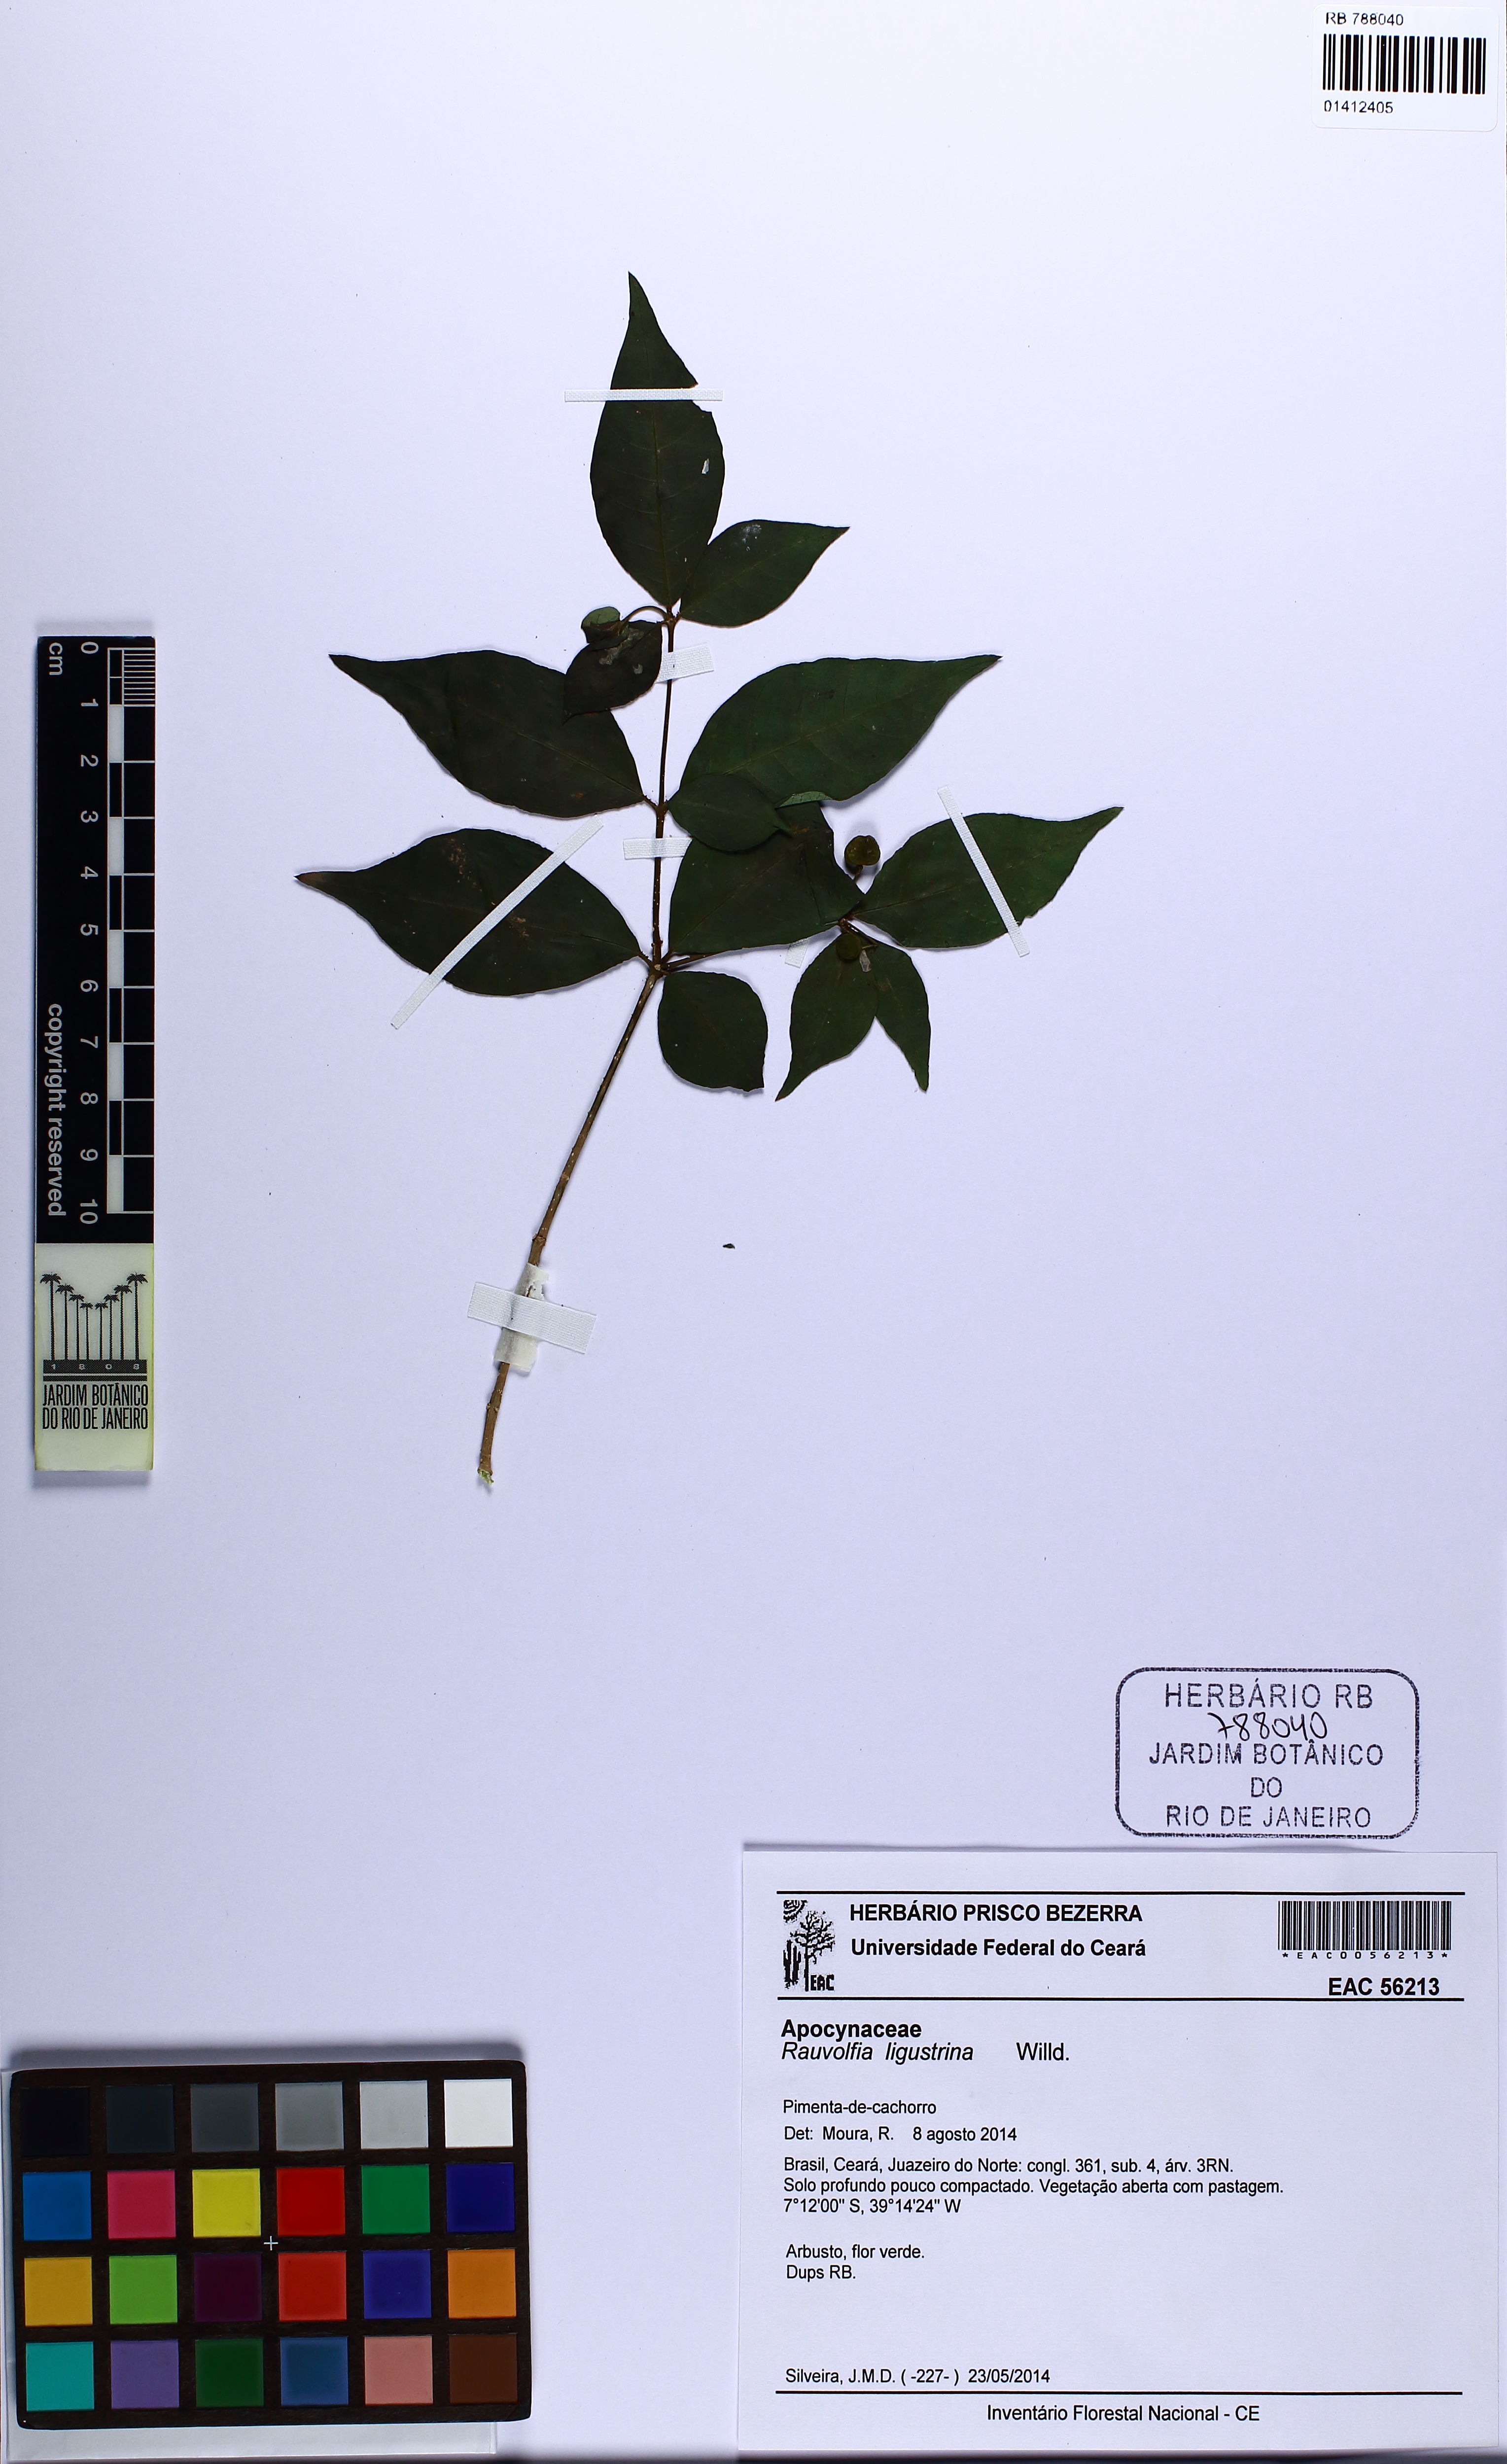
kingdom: Plantae
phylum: Tracheophyta
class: Magnoliopsida
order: Gentianales
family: Apocynaceae
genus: Rauvolfia
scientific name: Rauvolfia ligustrina
